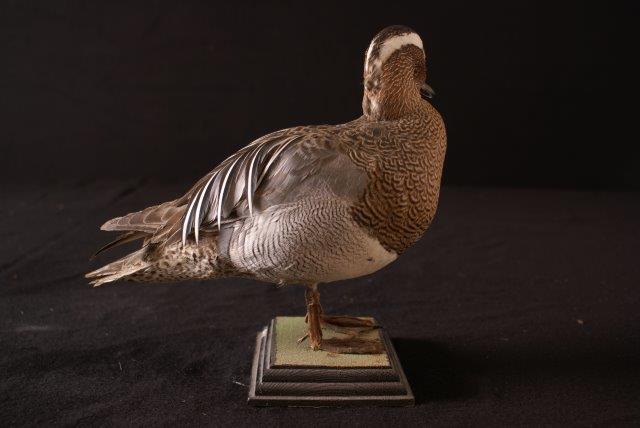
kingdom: Animalia
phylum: Chordata
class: Aves
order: Anseriformes
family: Anatidae
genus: Spatula
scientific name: Spatula querquedula
